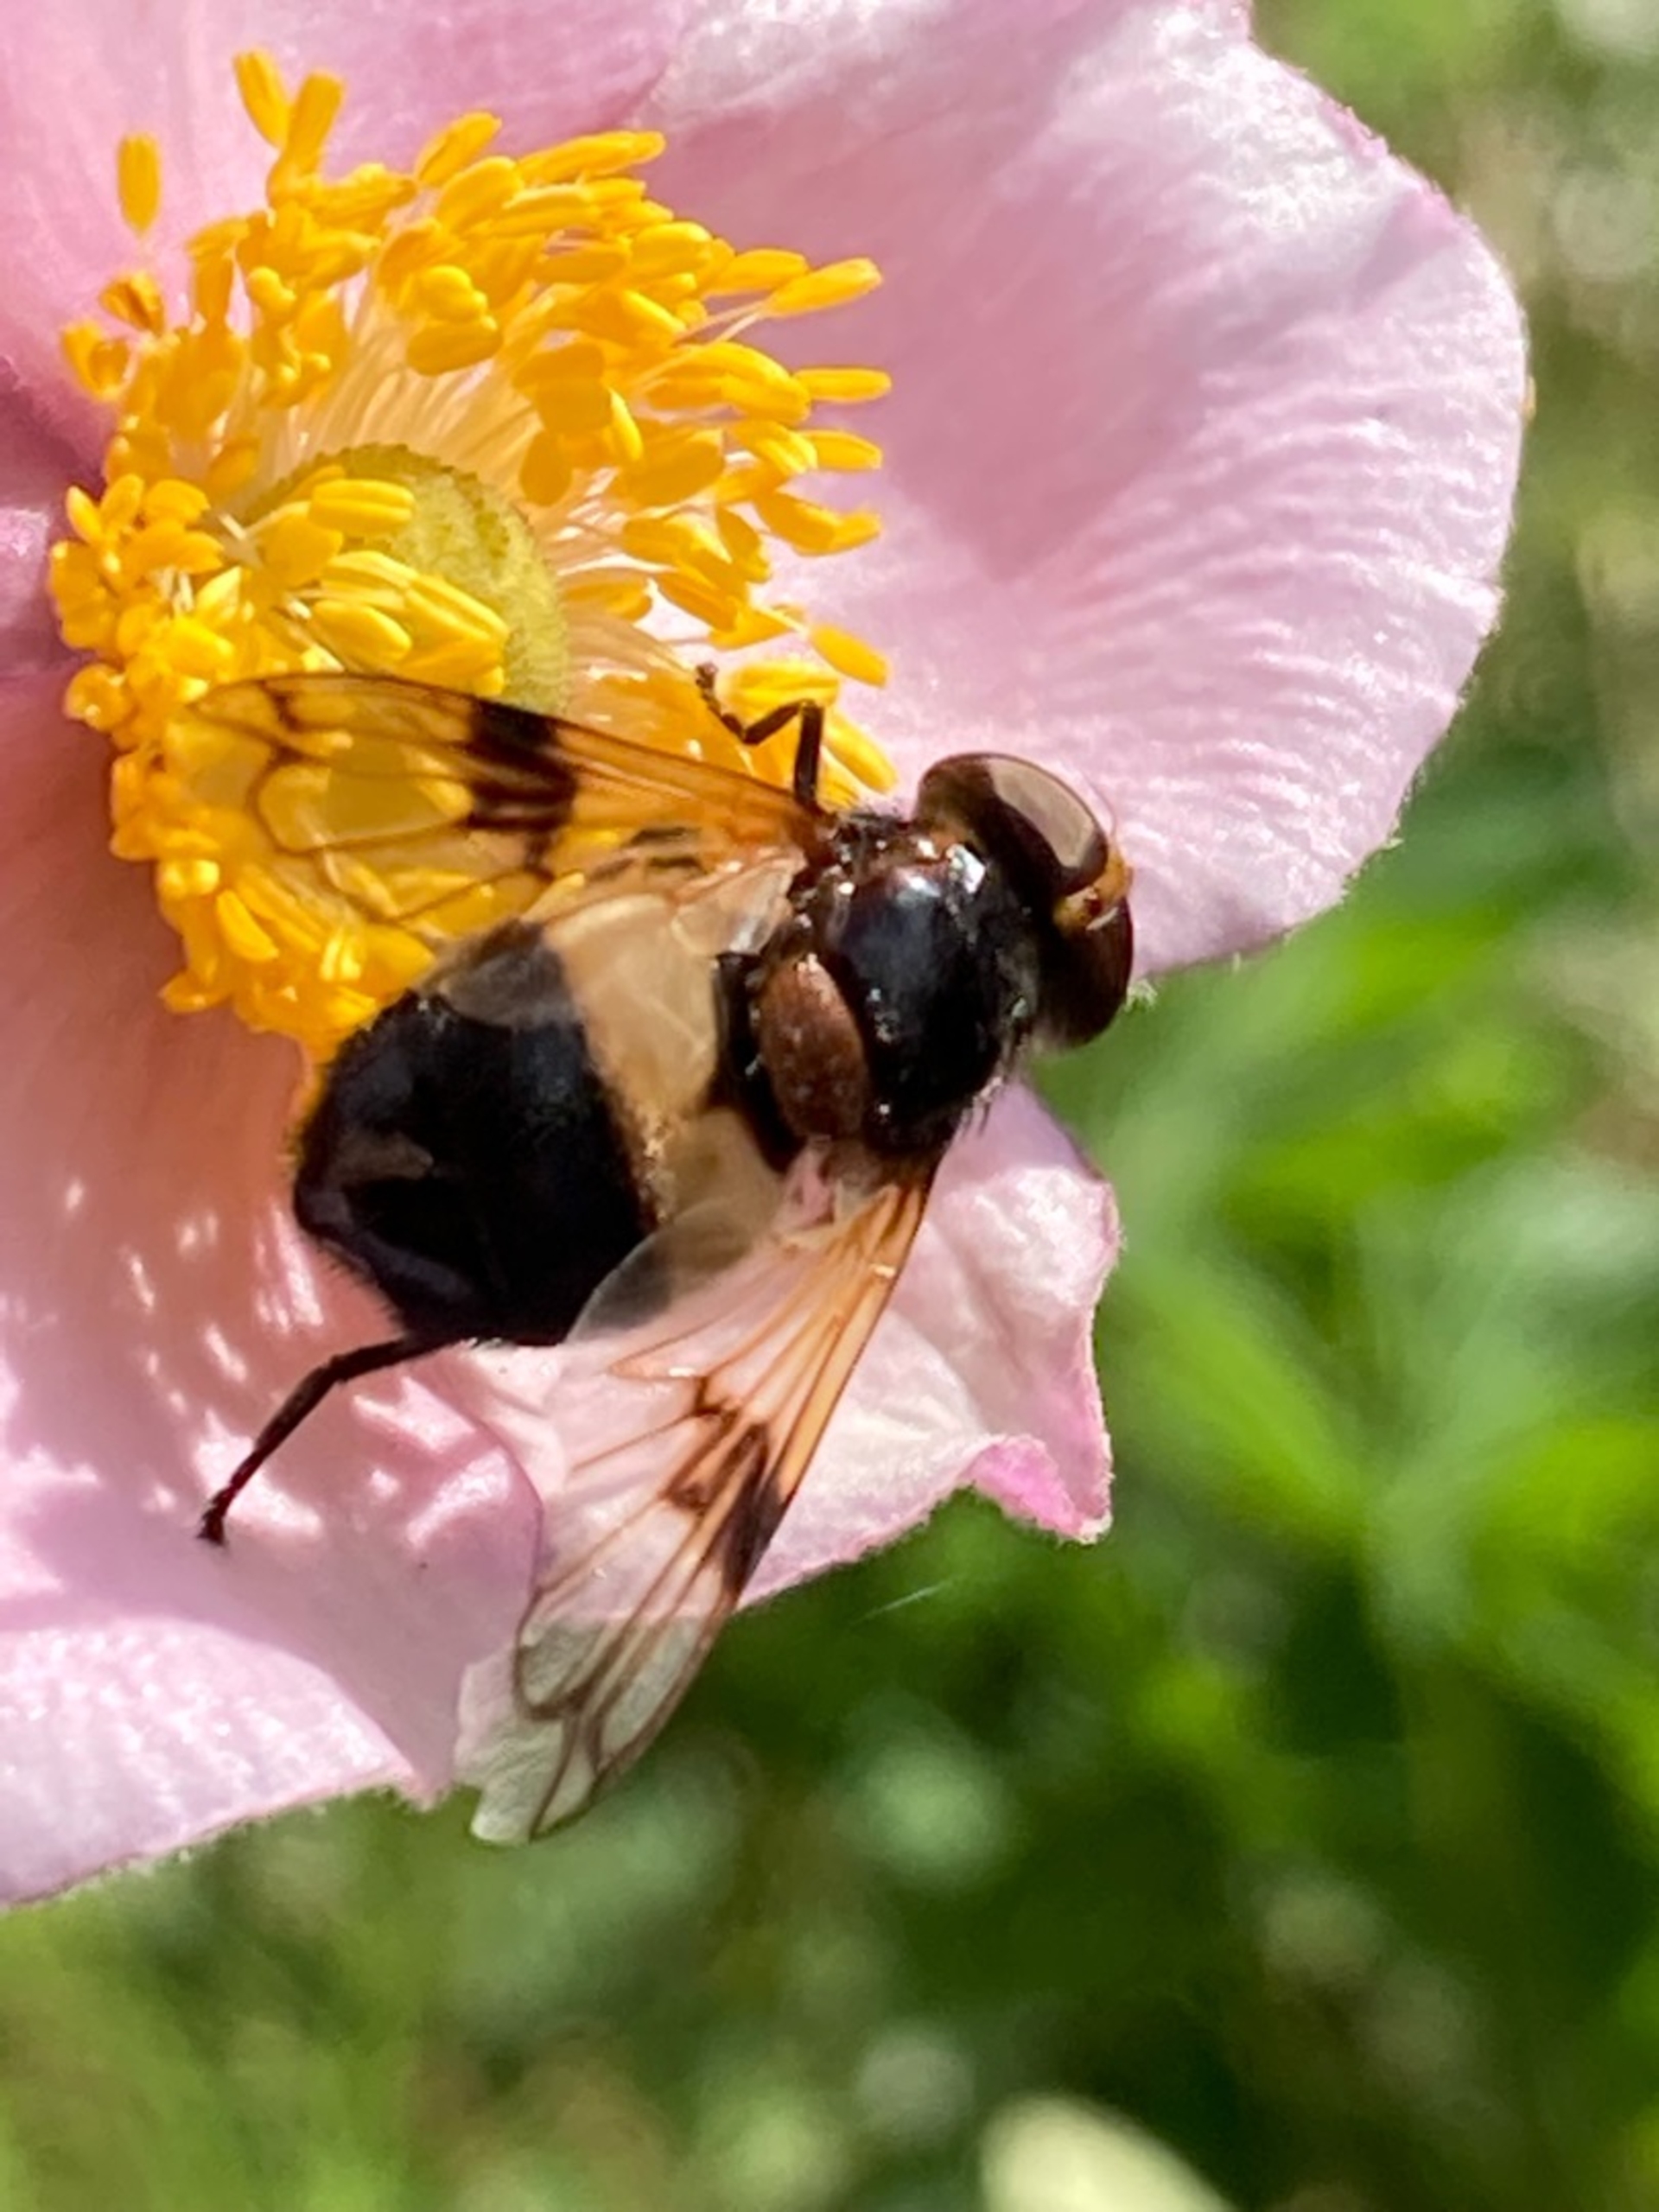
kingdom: Animalia
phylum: Arthropoda
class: Insecta
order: Diptera
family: Syrphidae
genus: Volucella
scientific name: Volucella pellucens
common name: Hvidbåndet humlesvirreflue
